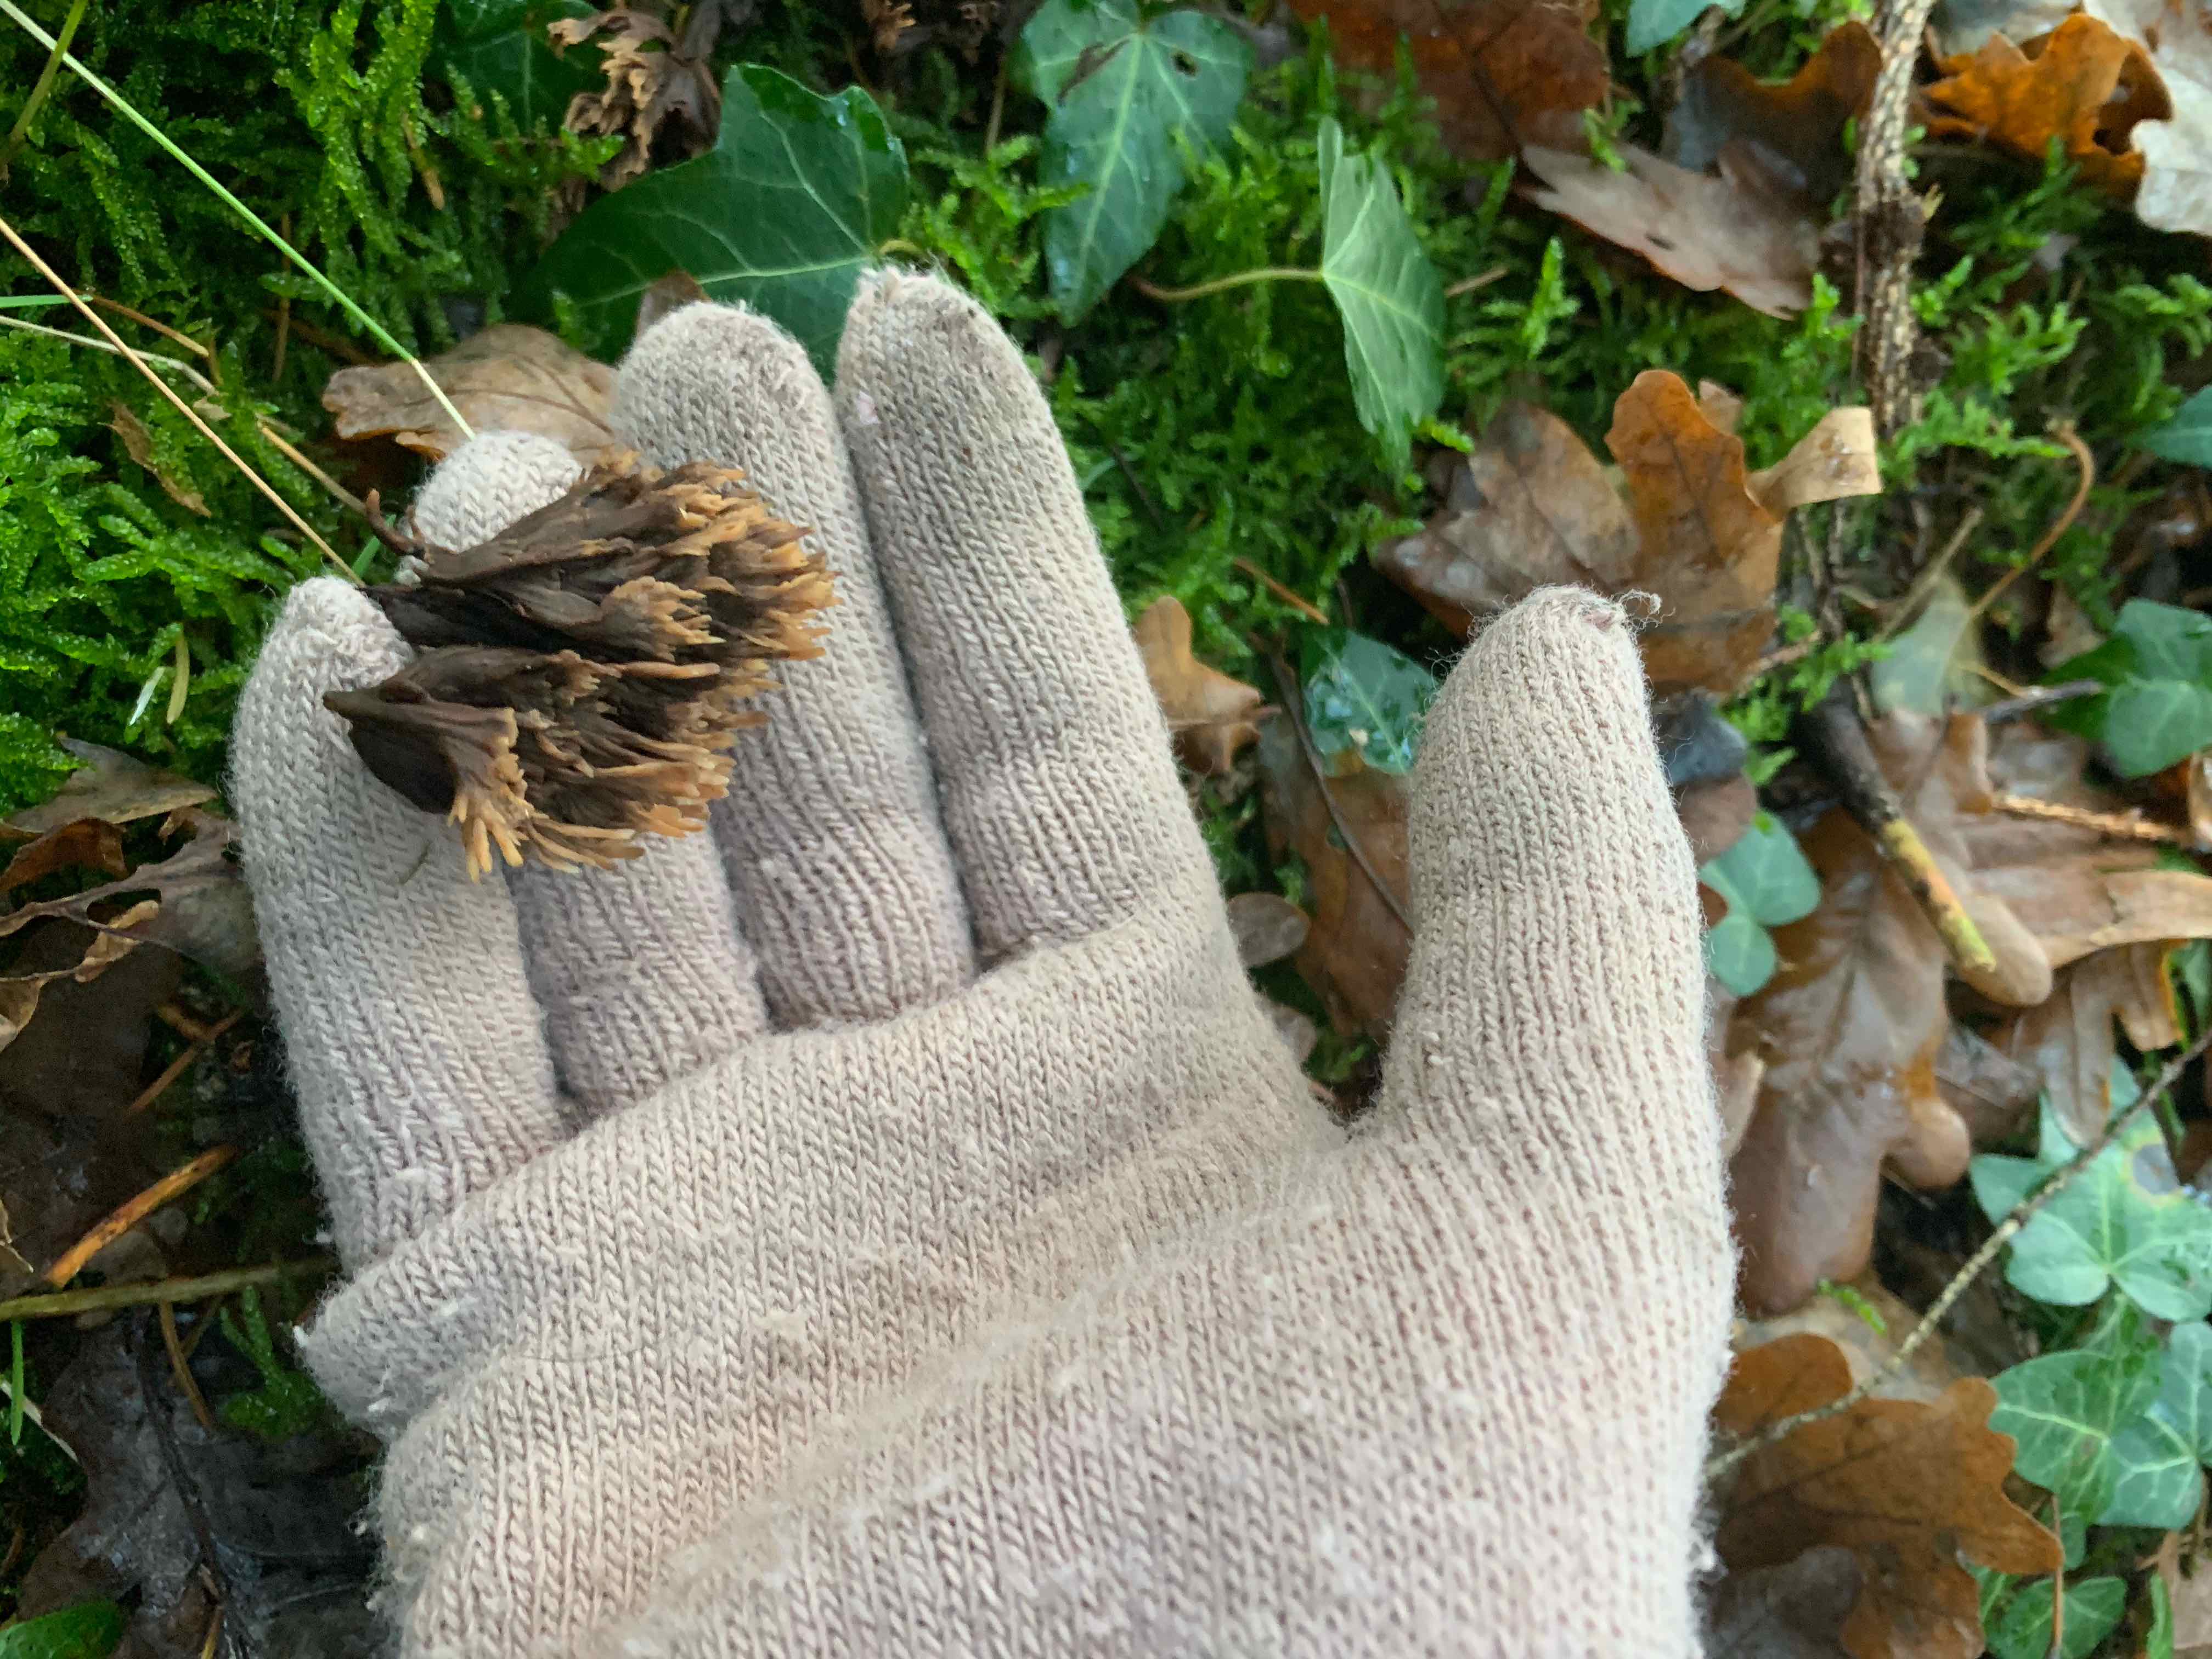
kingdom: Fungi
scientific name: Fungi
